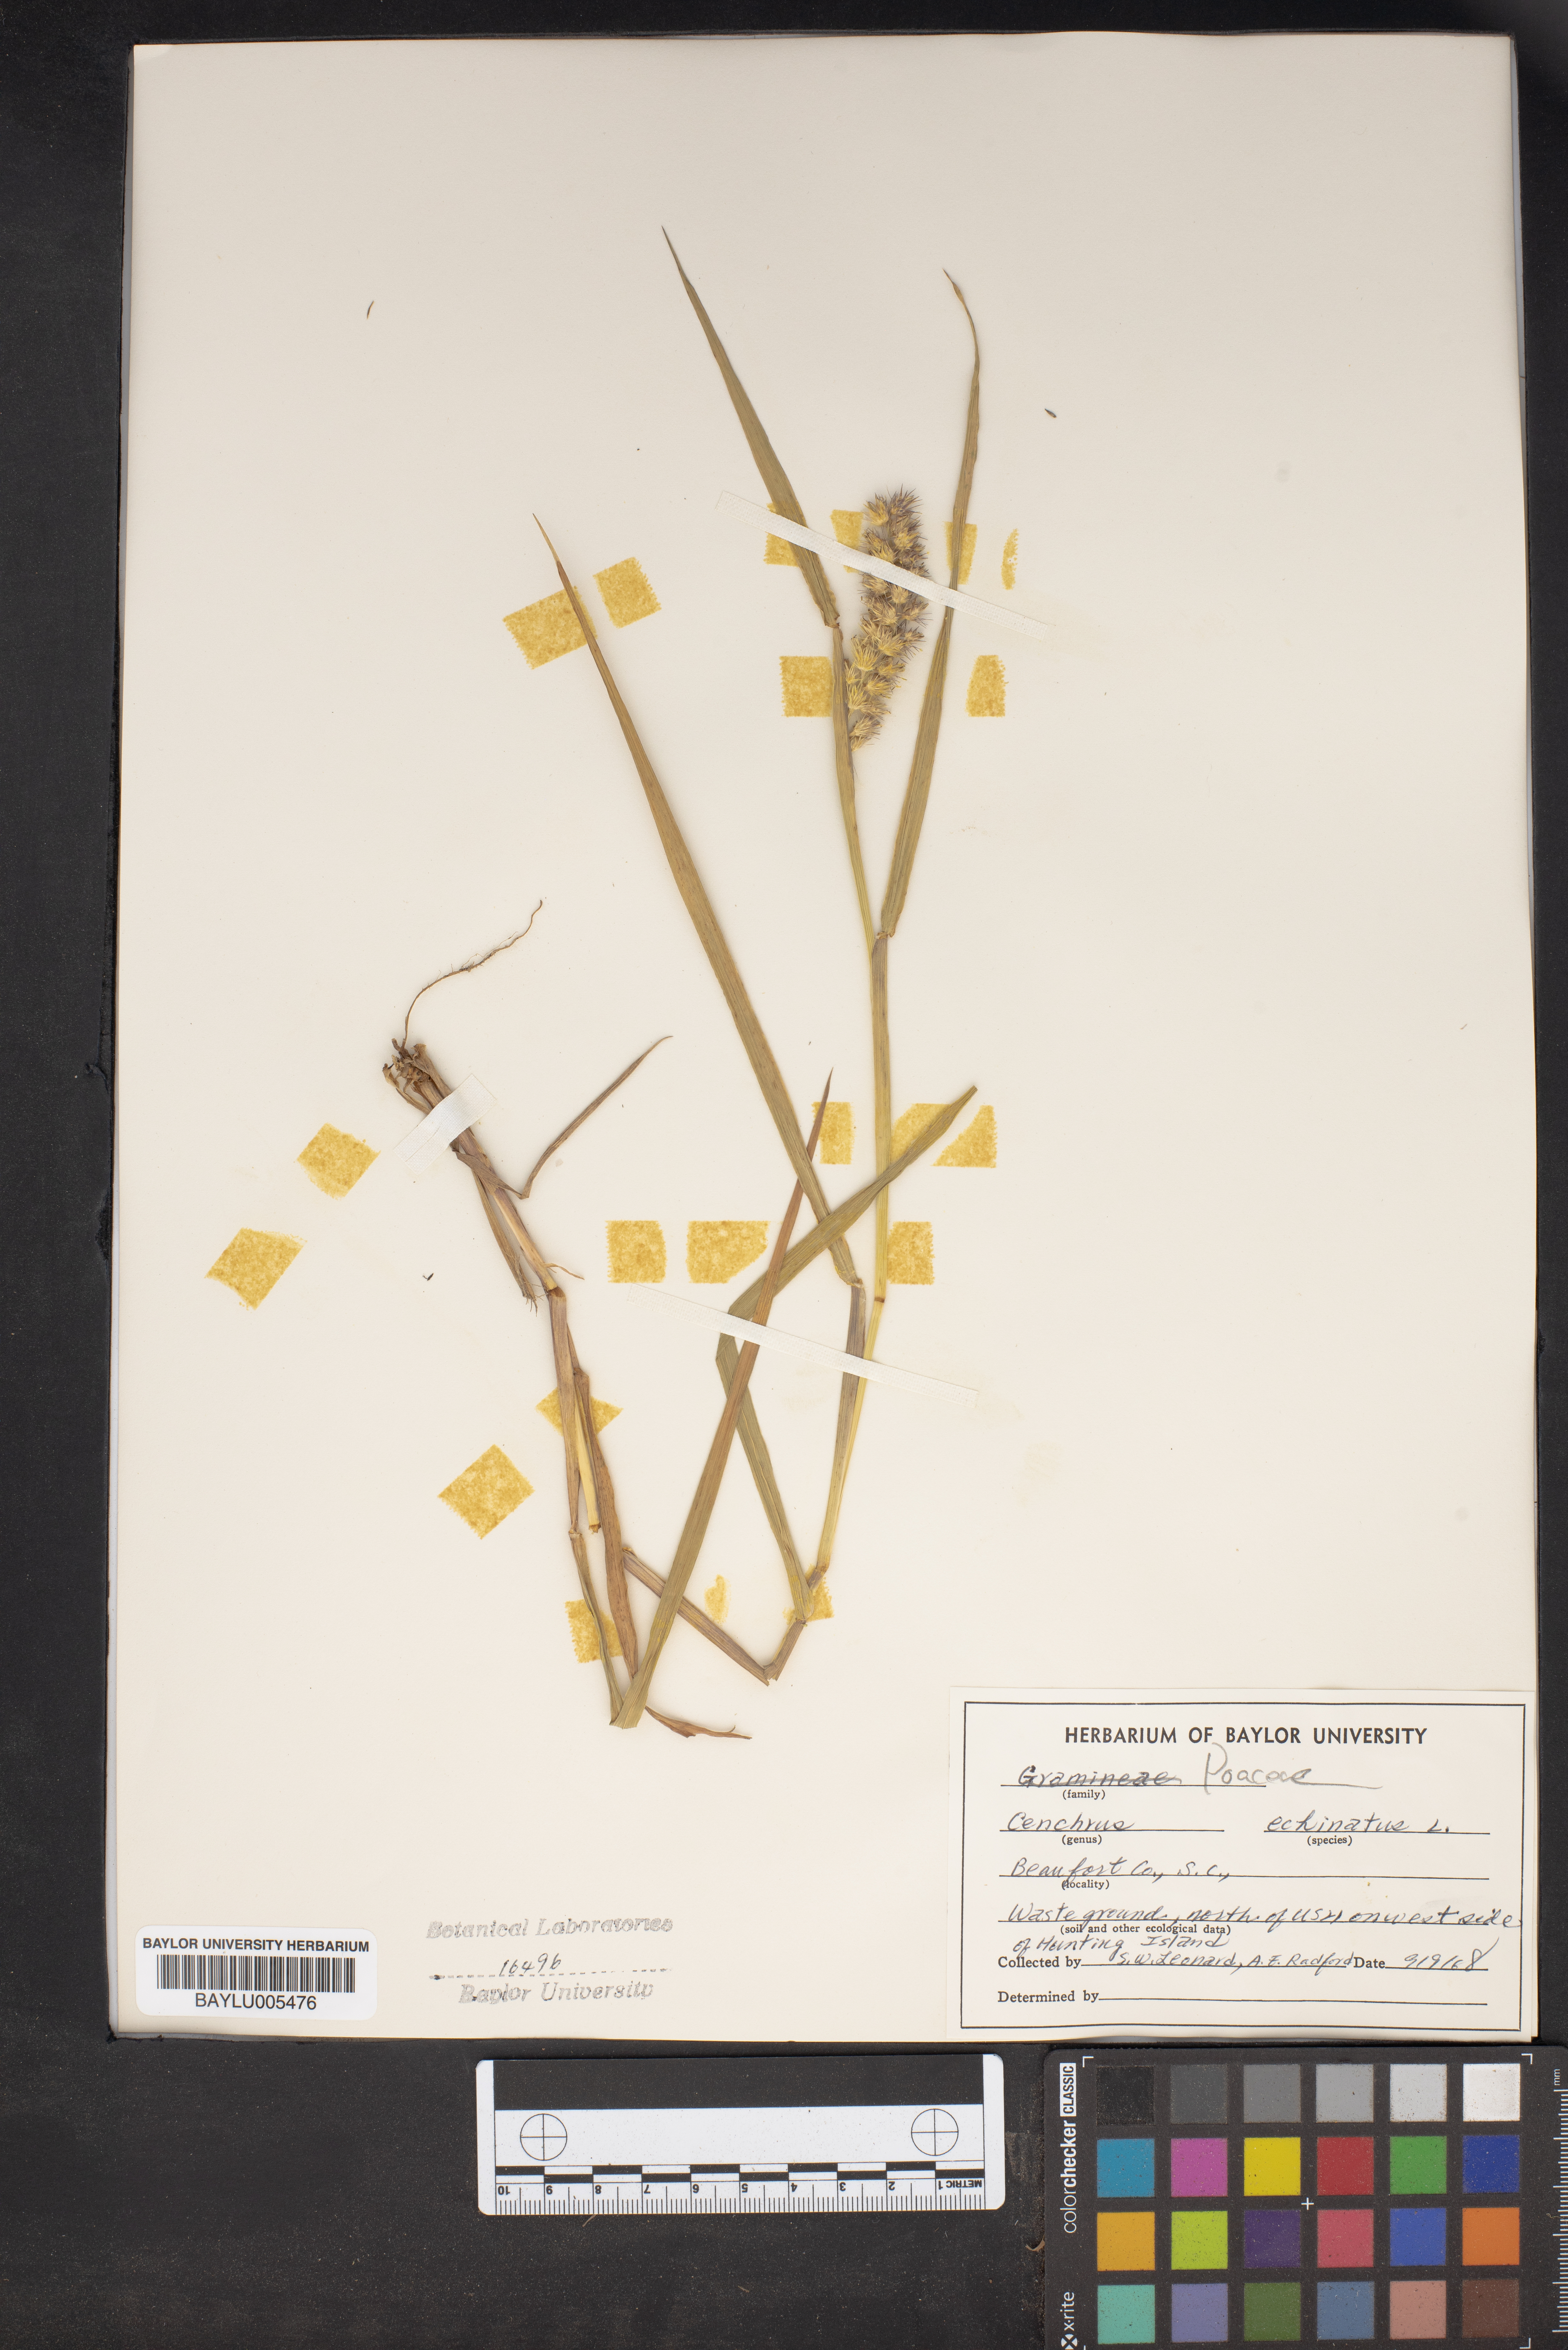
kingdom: Plantae
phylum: Tracheophyta
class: Liliopsida
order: Poales
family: Poaceae
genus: Cenchrus
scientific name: Cenchrus echinatus
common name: Southern sandbur
